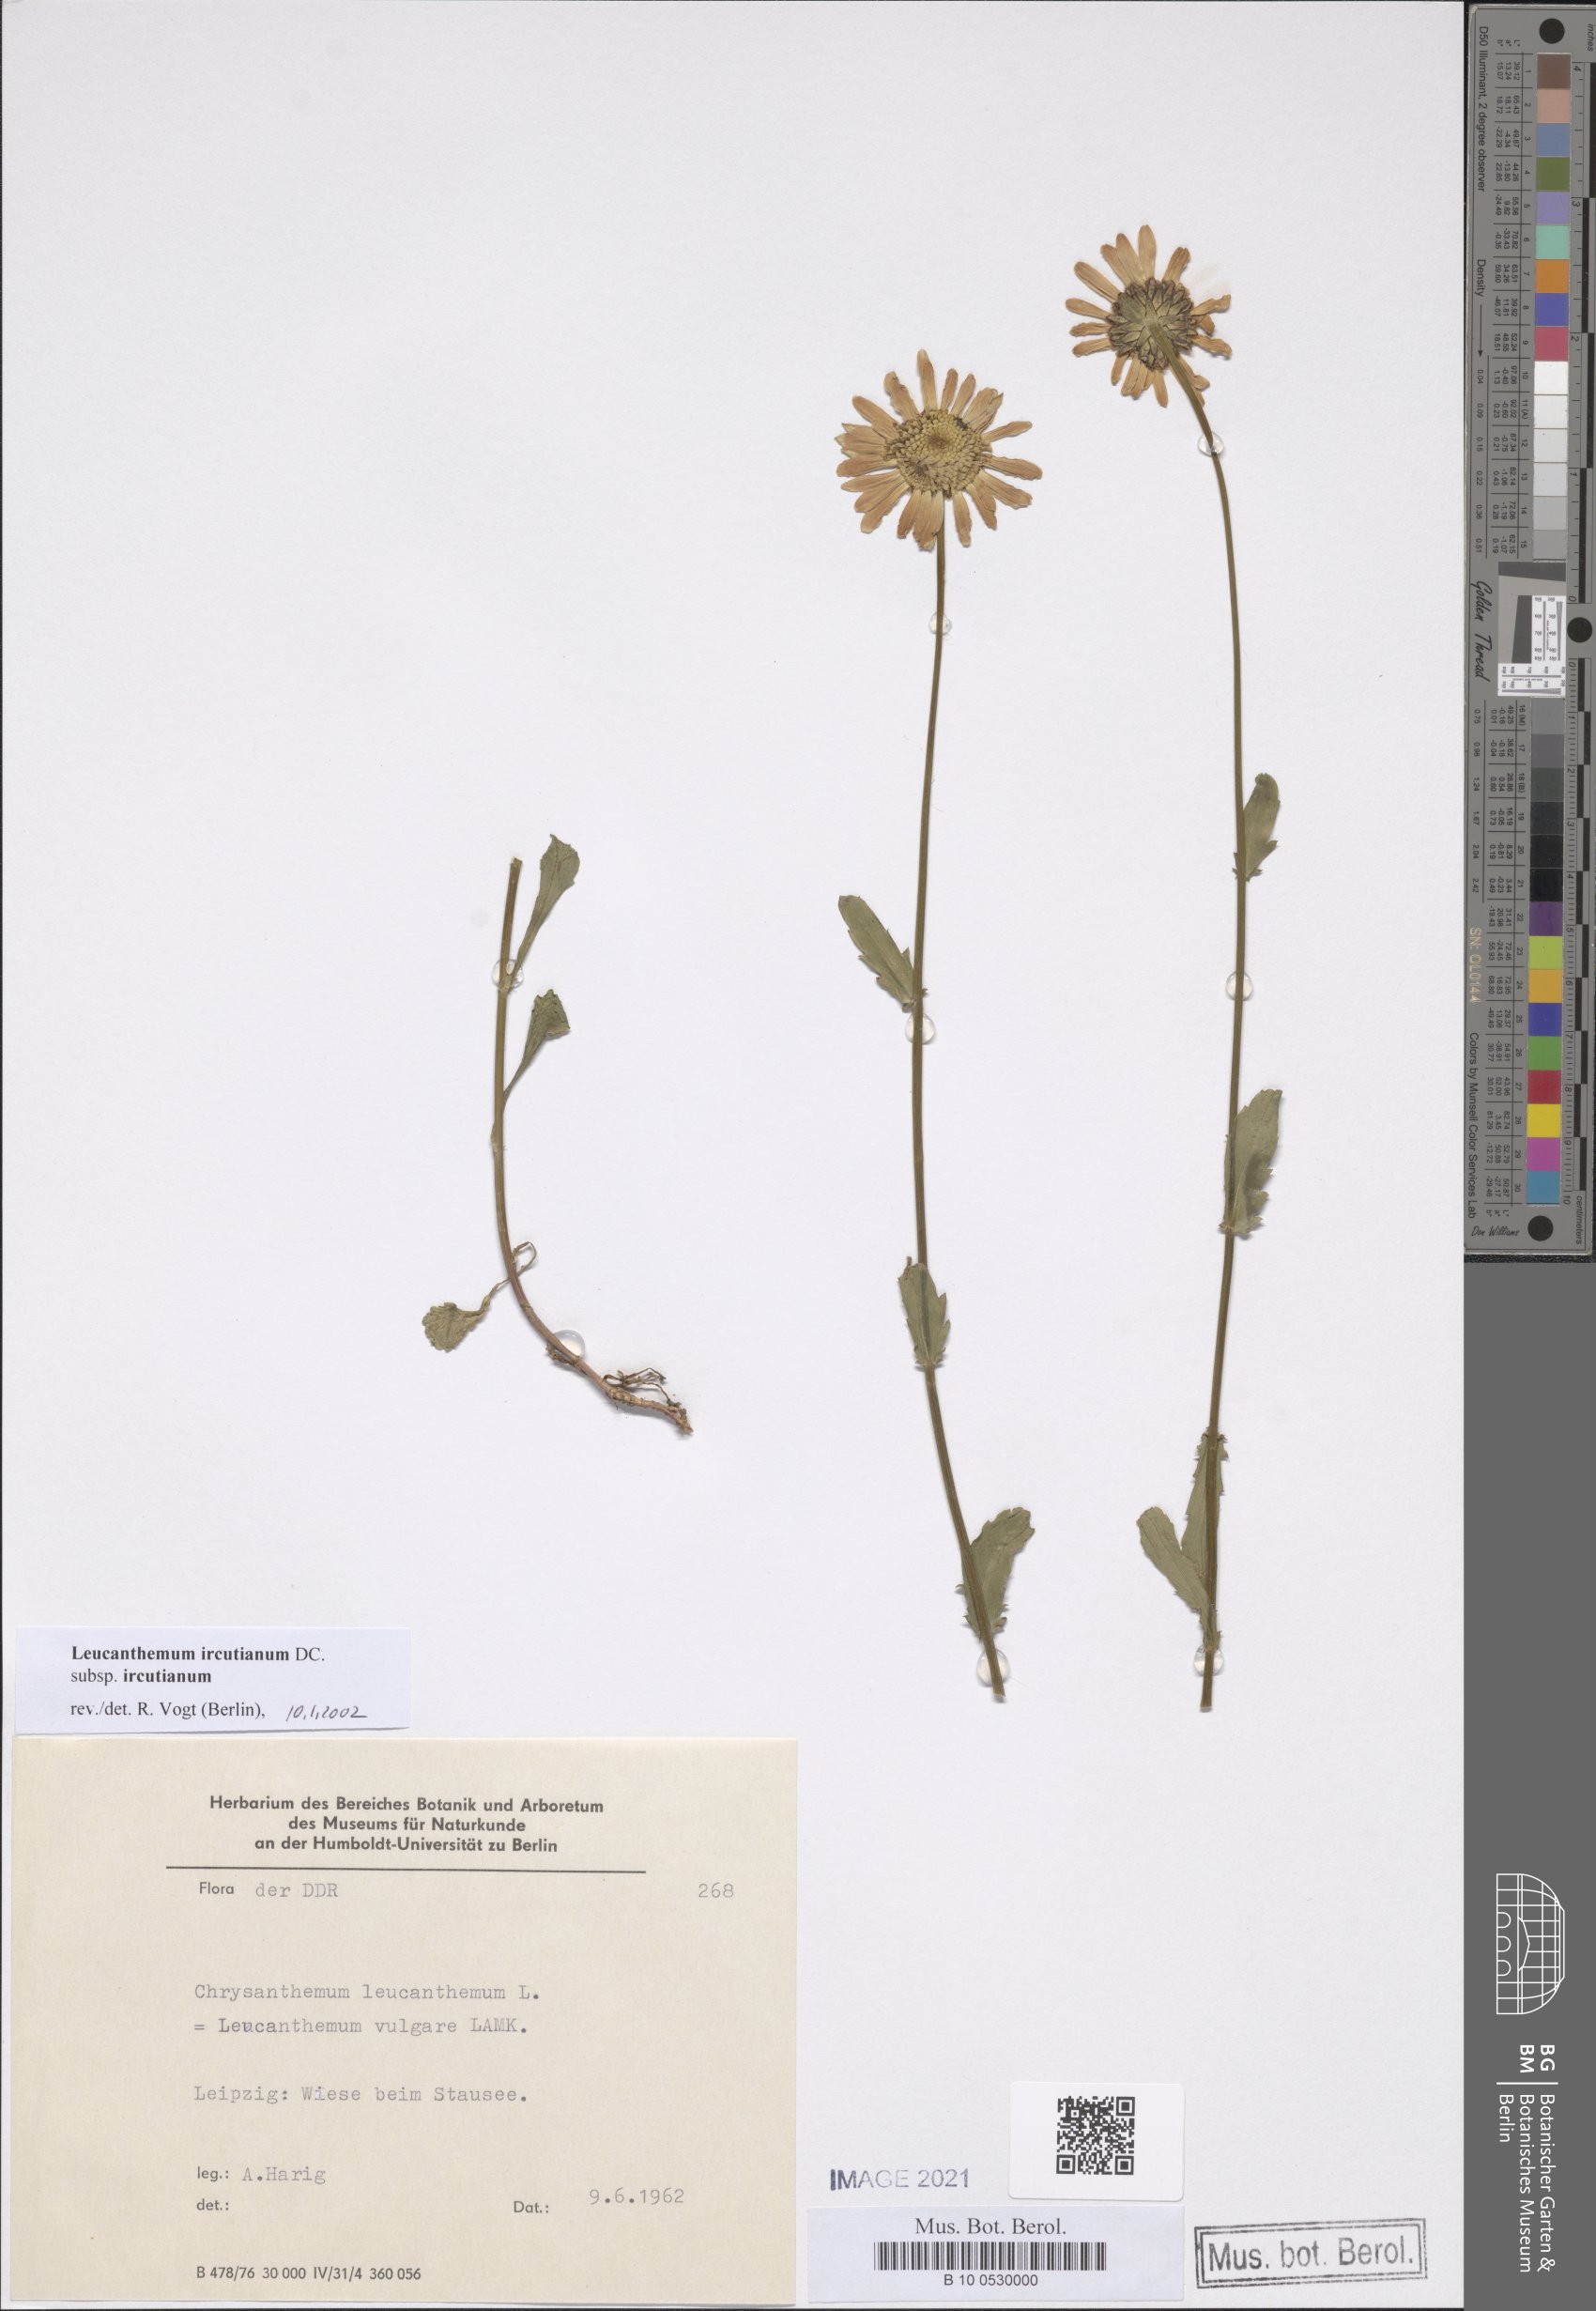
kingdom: Plantae
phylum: Tracheophyta
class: Magnoliopsida
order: Asterales
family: Asteraceae
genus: Leucanthemum
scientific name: Leucanthemum ircutianum
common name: Daisy
